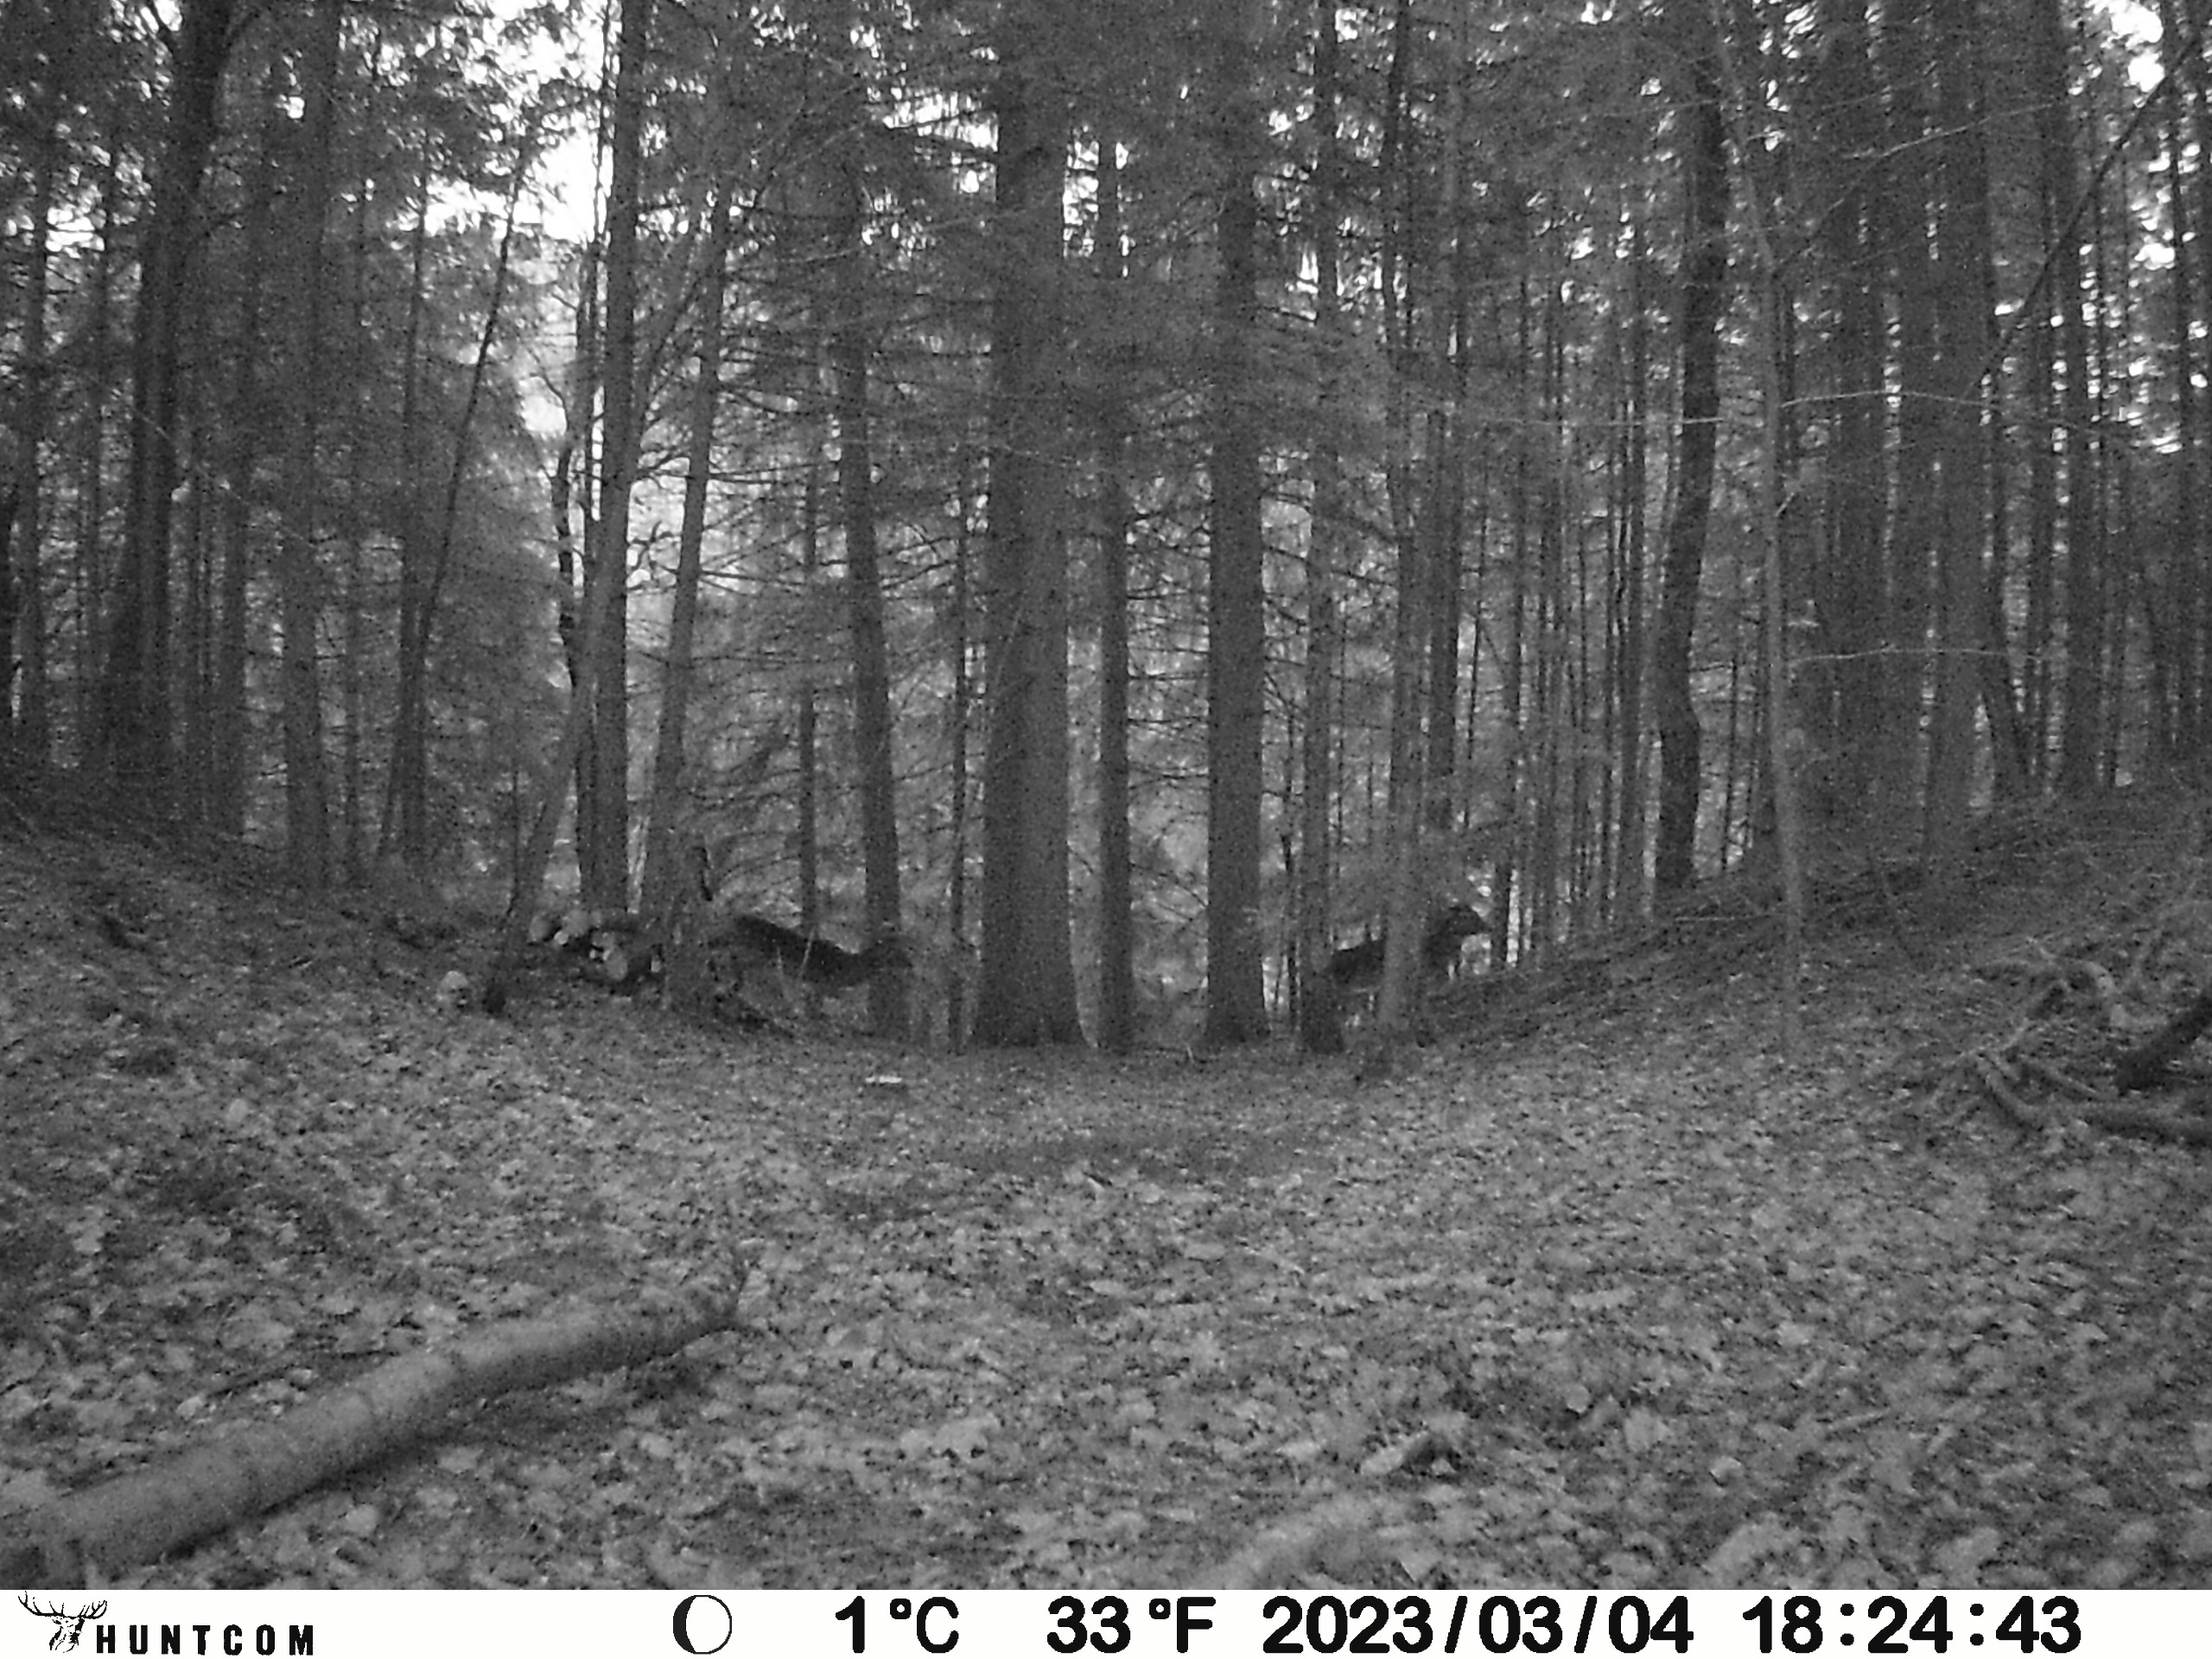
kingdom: Animalia
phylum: Chordata
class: Mammalia
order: Artiodactyla
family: Cervidae
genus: Dama
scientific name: Dama dama
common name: Dådyr
